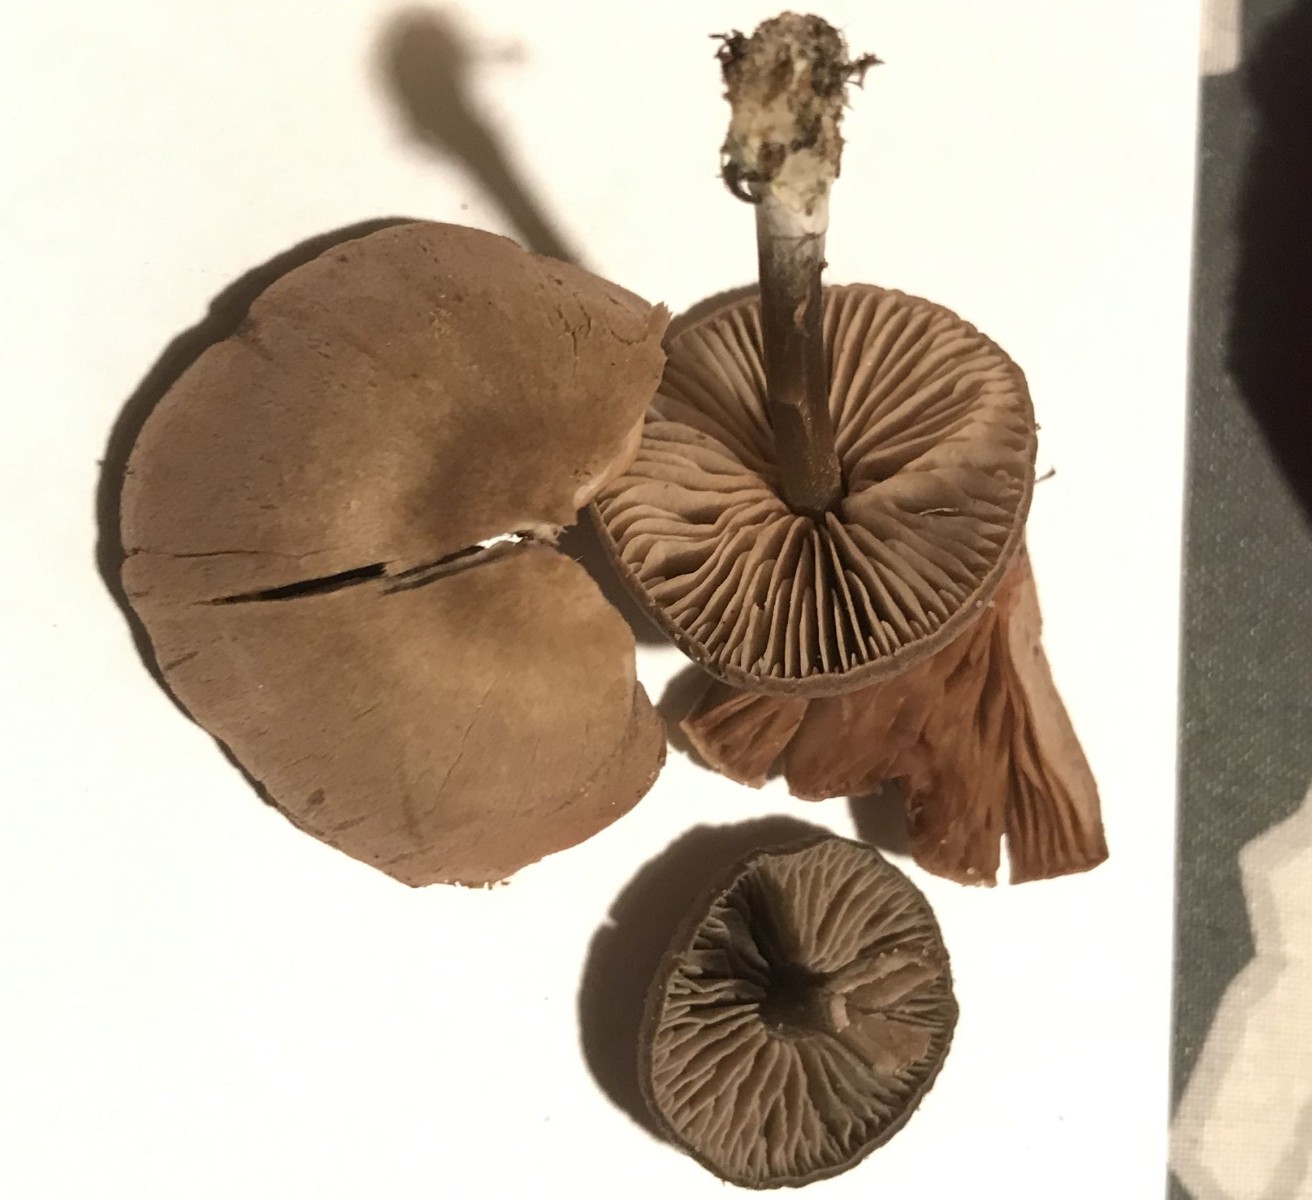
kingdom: Fungi
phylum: Basidiomycota
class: Agaricomycetes
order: Agaricales
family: Entolomataceae
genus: Entoloma
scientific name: Entoloma
